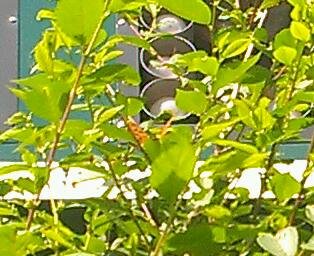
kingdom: Animalia
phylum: Arthropoda
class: Insecta
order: Lepidoptera
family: Nymphalidae
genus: Polygonia
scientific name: Polygonia interrogationis
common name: Question Mark
